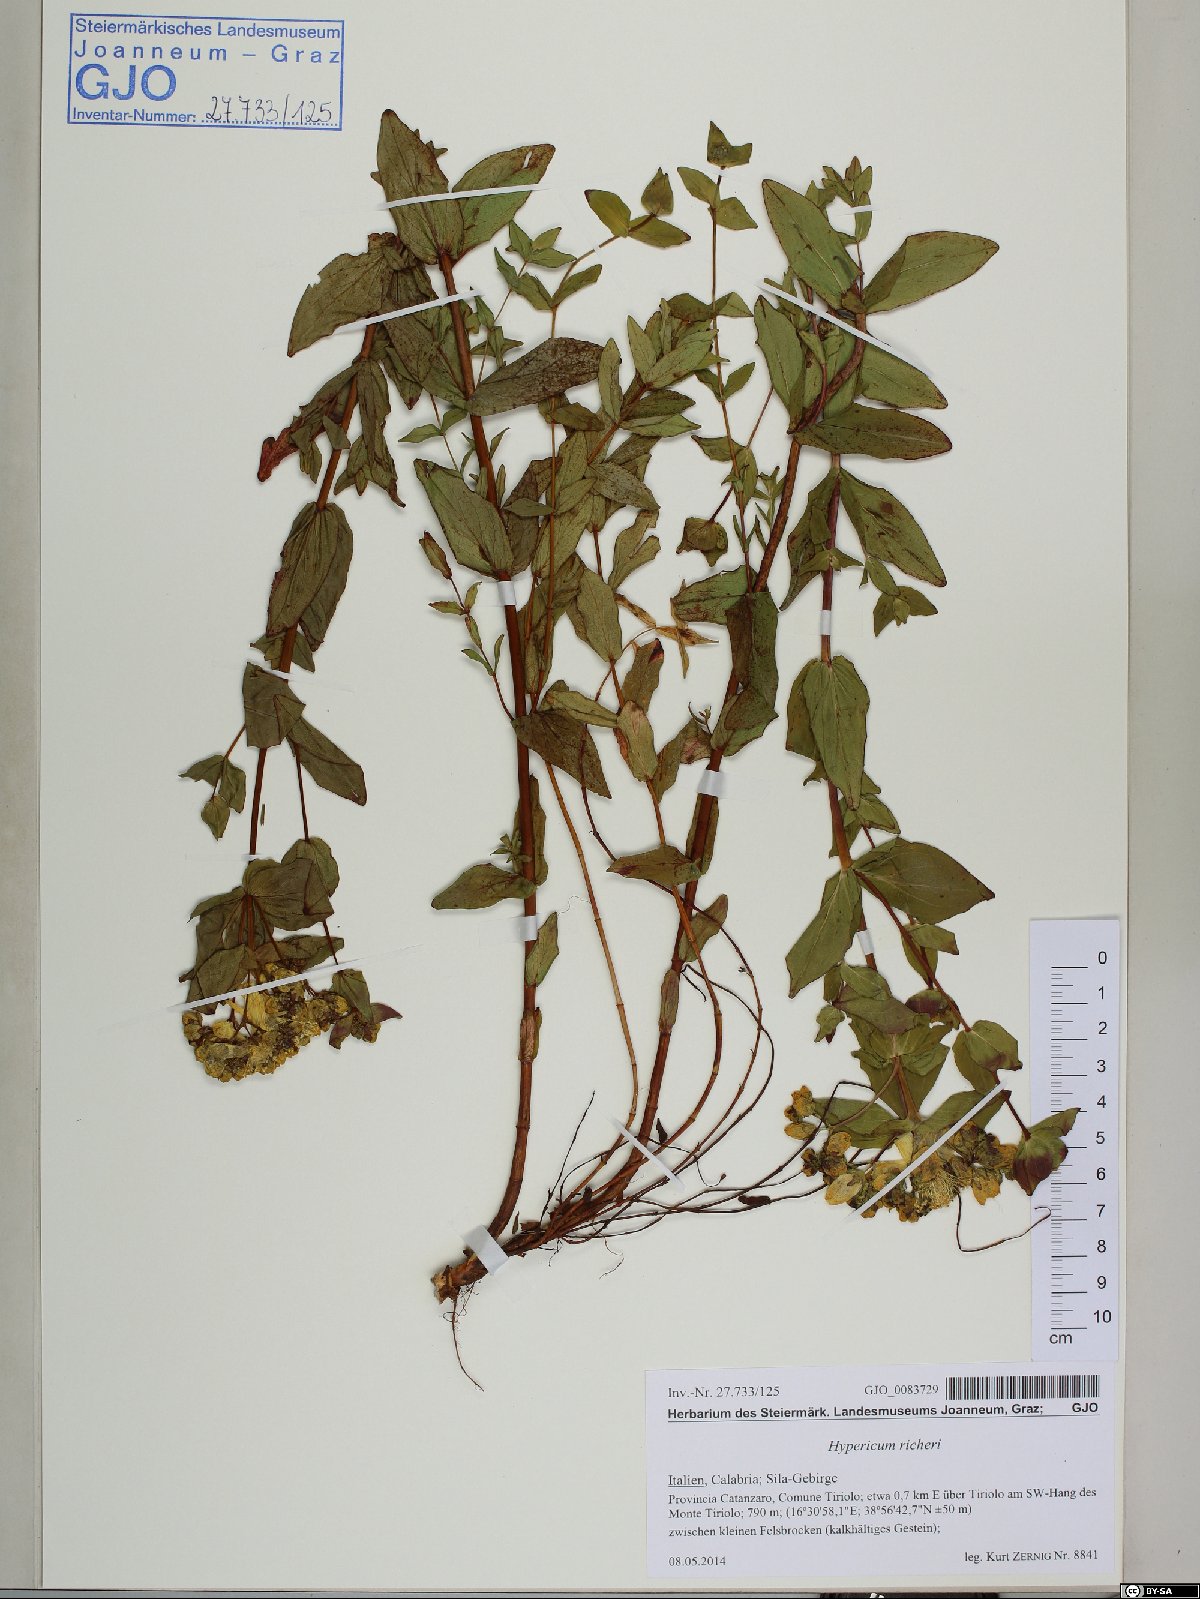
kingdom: Plantae
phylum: Tracheophyta
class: Magnoliopsida
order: Malpighiales
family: Hypericaceae
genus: Hypericum
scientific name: Hypericum richeri
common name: Alpine st john's-wort
